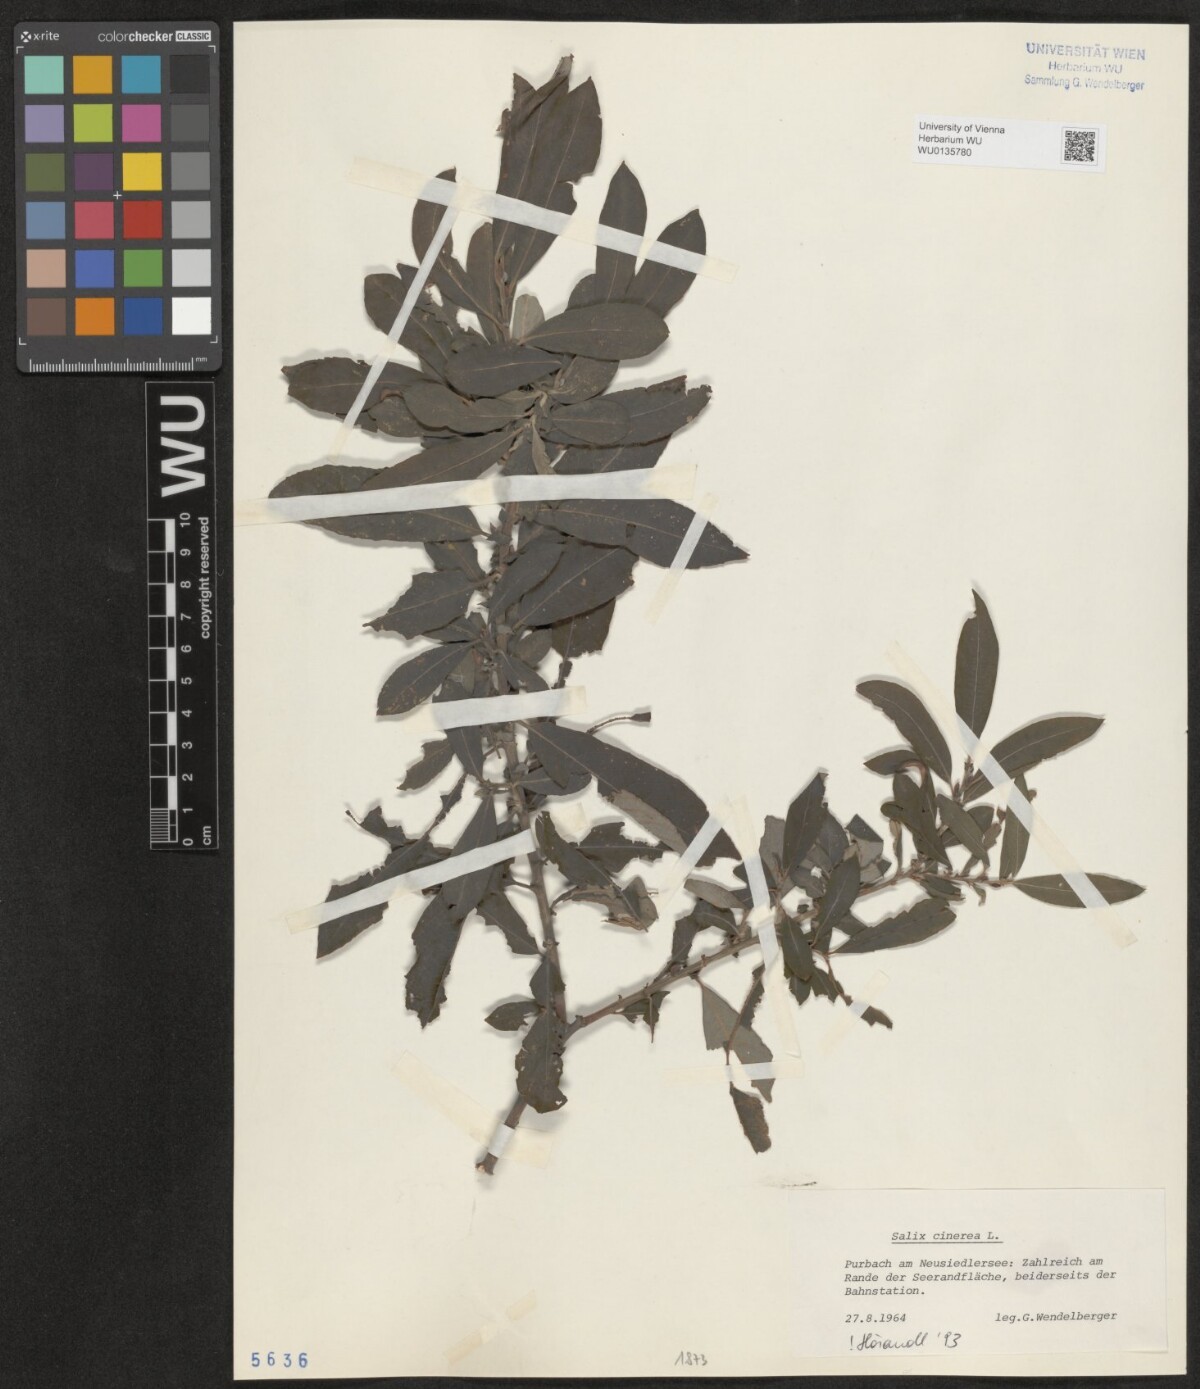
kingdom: Plantae
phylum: Tracheophyta
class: Magnoliopsida
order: Malpighiales
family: Salicaceae
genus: Salix
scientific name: Salix cinerea
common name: Common sallow
